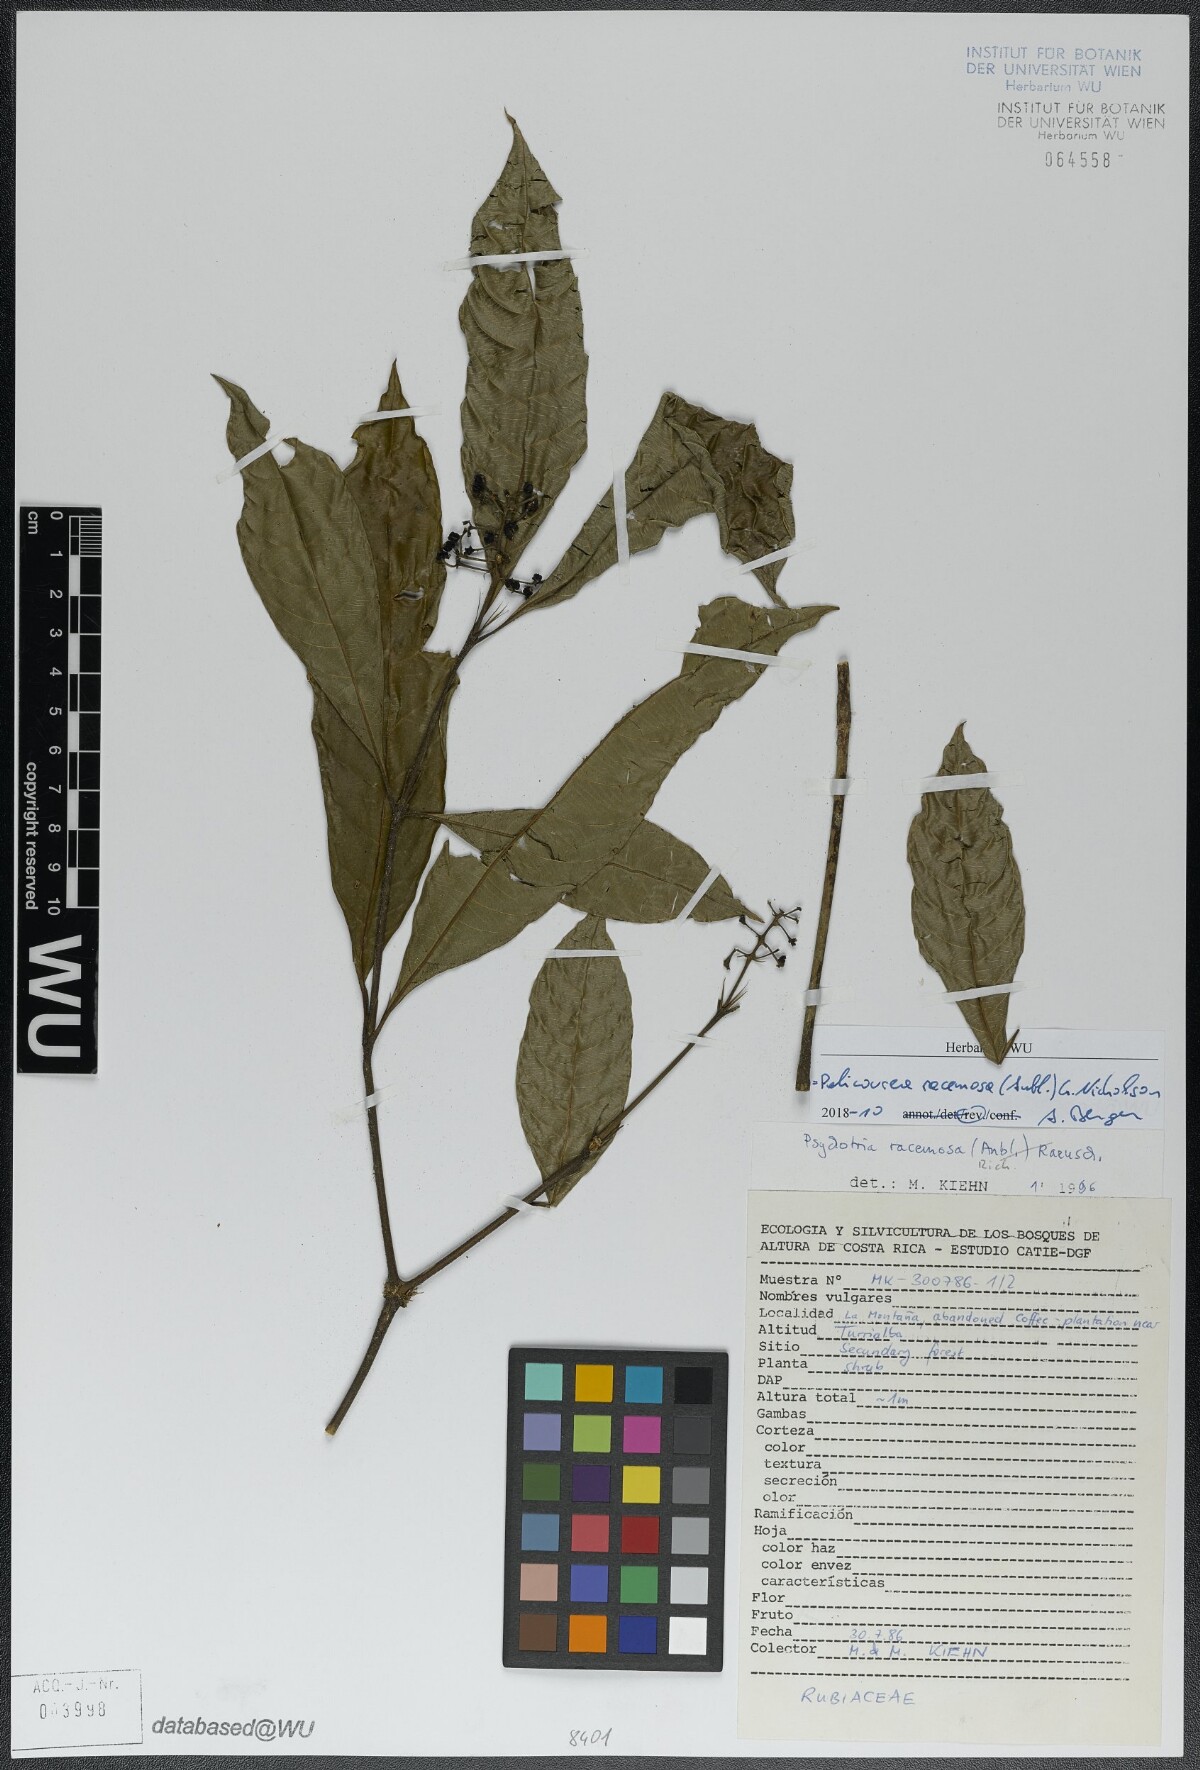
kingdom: Plantae
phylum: Tracheophyta
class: Magnoliopsida
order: Gentianales
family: Rubiaceae
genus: Palicourea
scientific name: Palicourea racemosa
